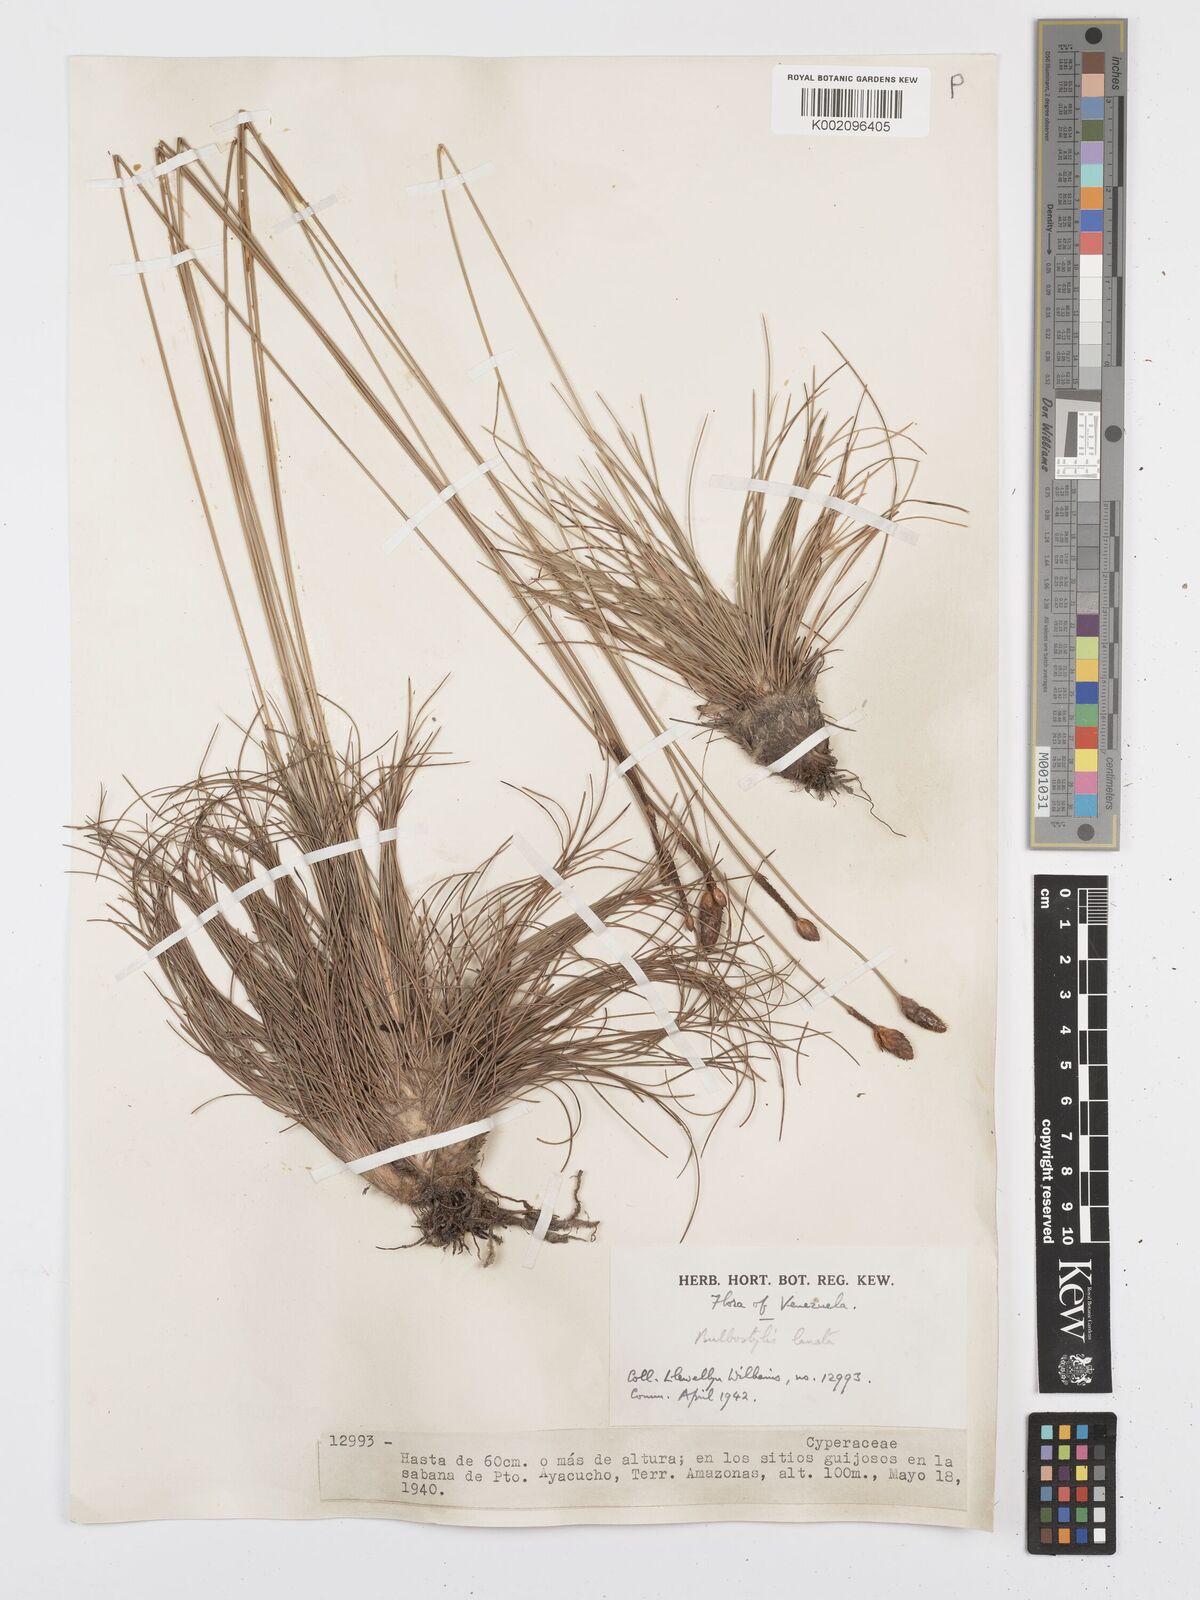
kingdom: Plantae
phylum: Tracheophyta
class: Liliopsida
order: Poales
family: Cyperaceae
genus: Bulbostylis
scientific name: Bulbostylis lanata
